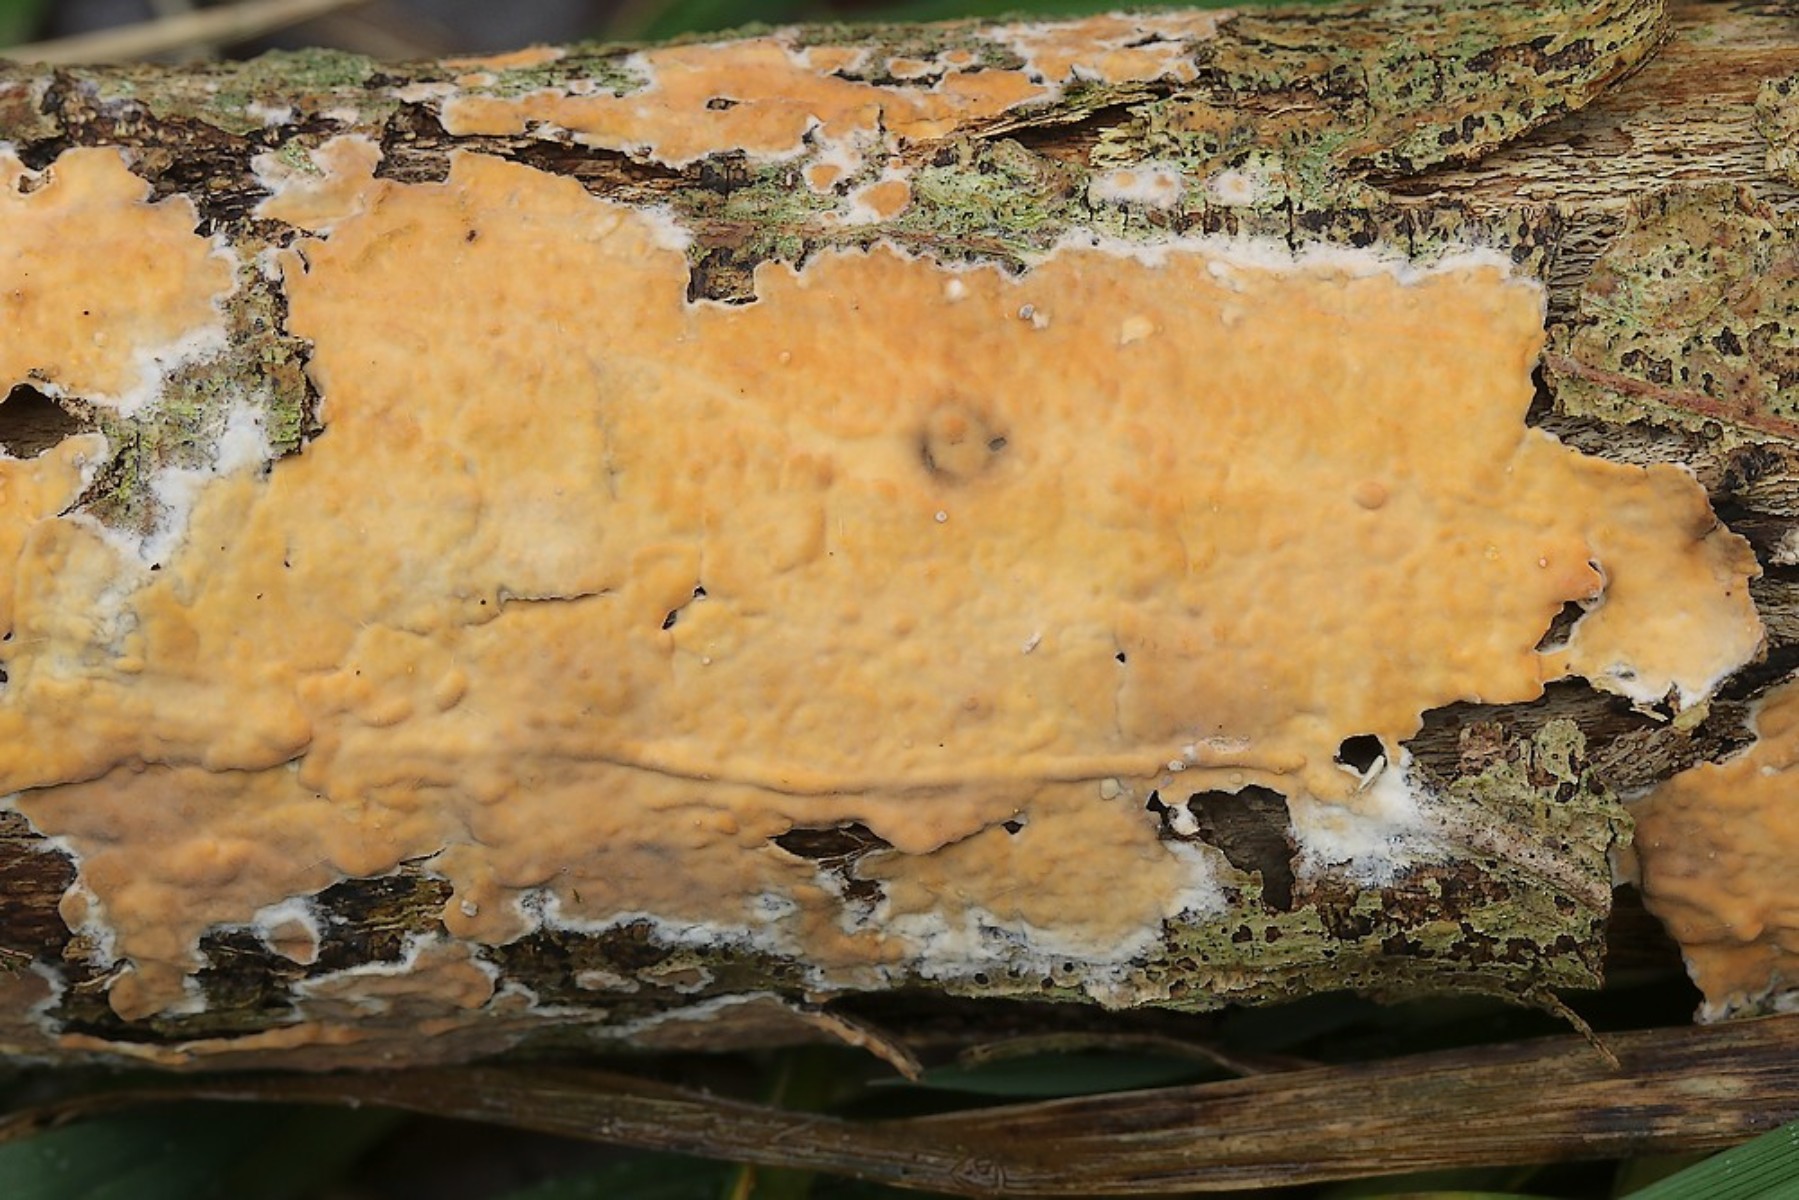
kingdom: Fungi
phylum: Basidiomycota
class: Agaricomycetes
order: Russulales
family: Peniophoraceae
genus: Peniophora
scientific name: Peniophora incarnata
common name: laksefarvet voksskind
